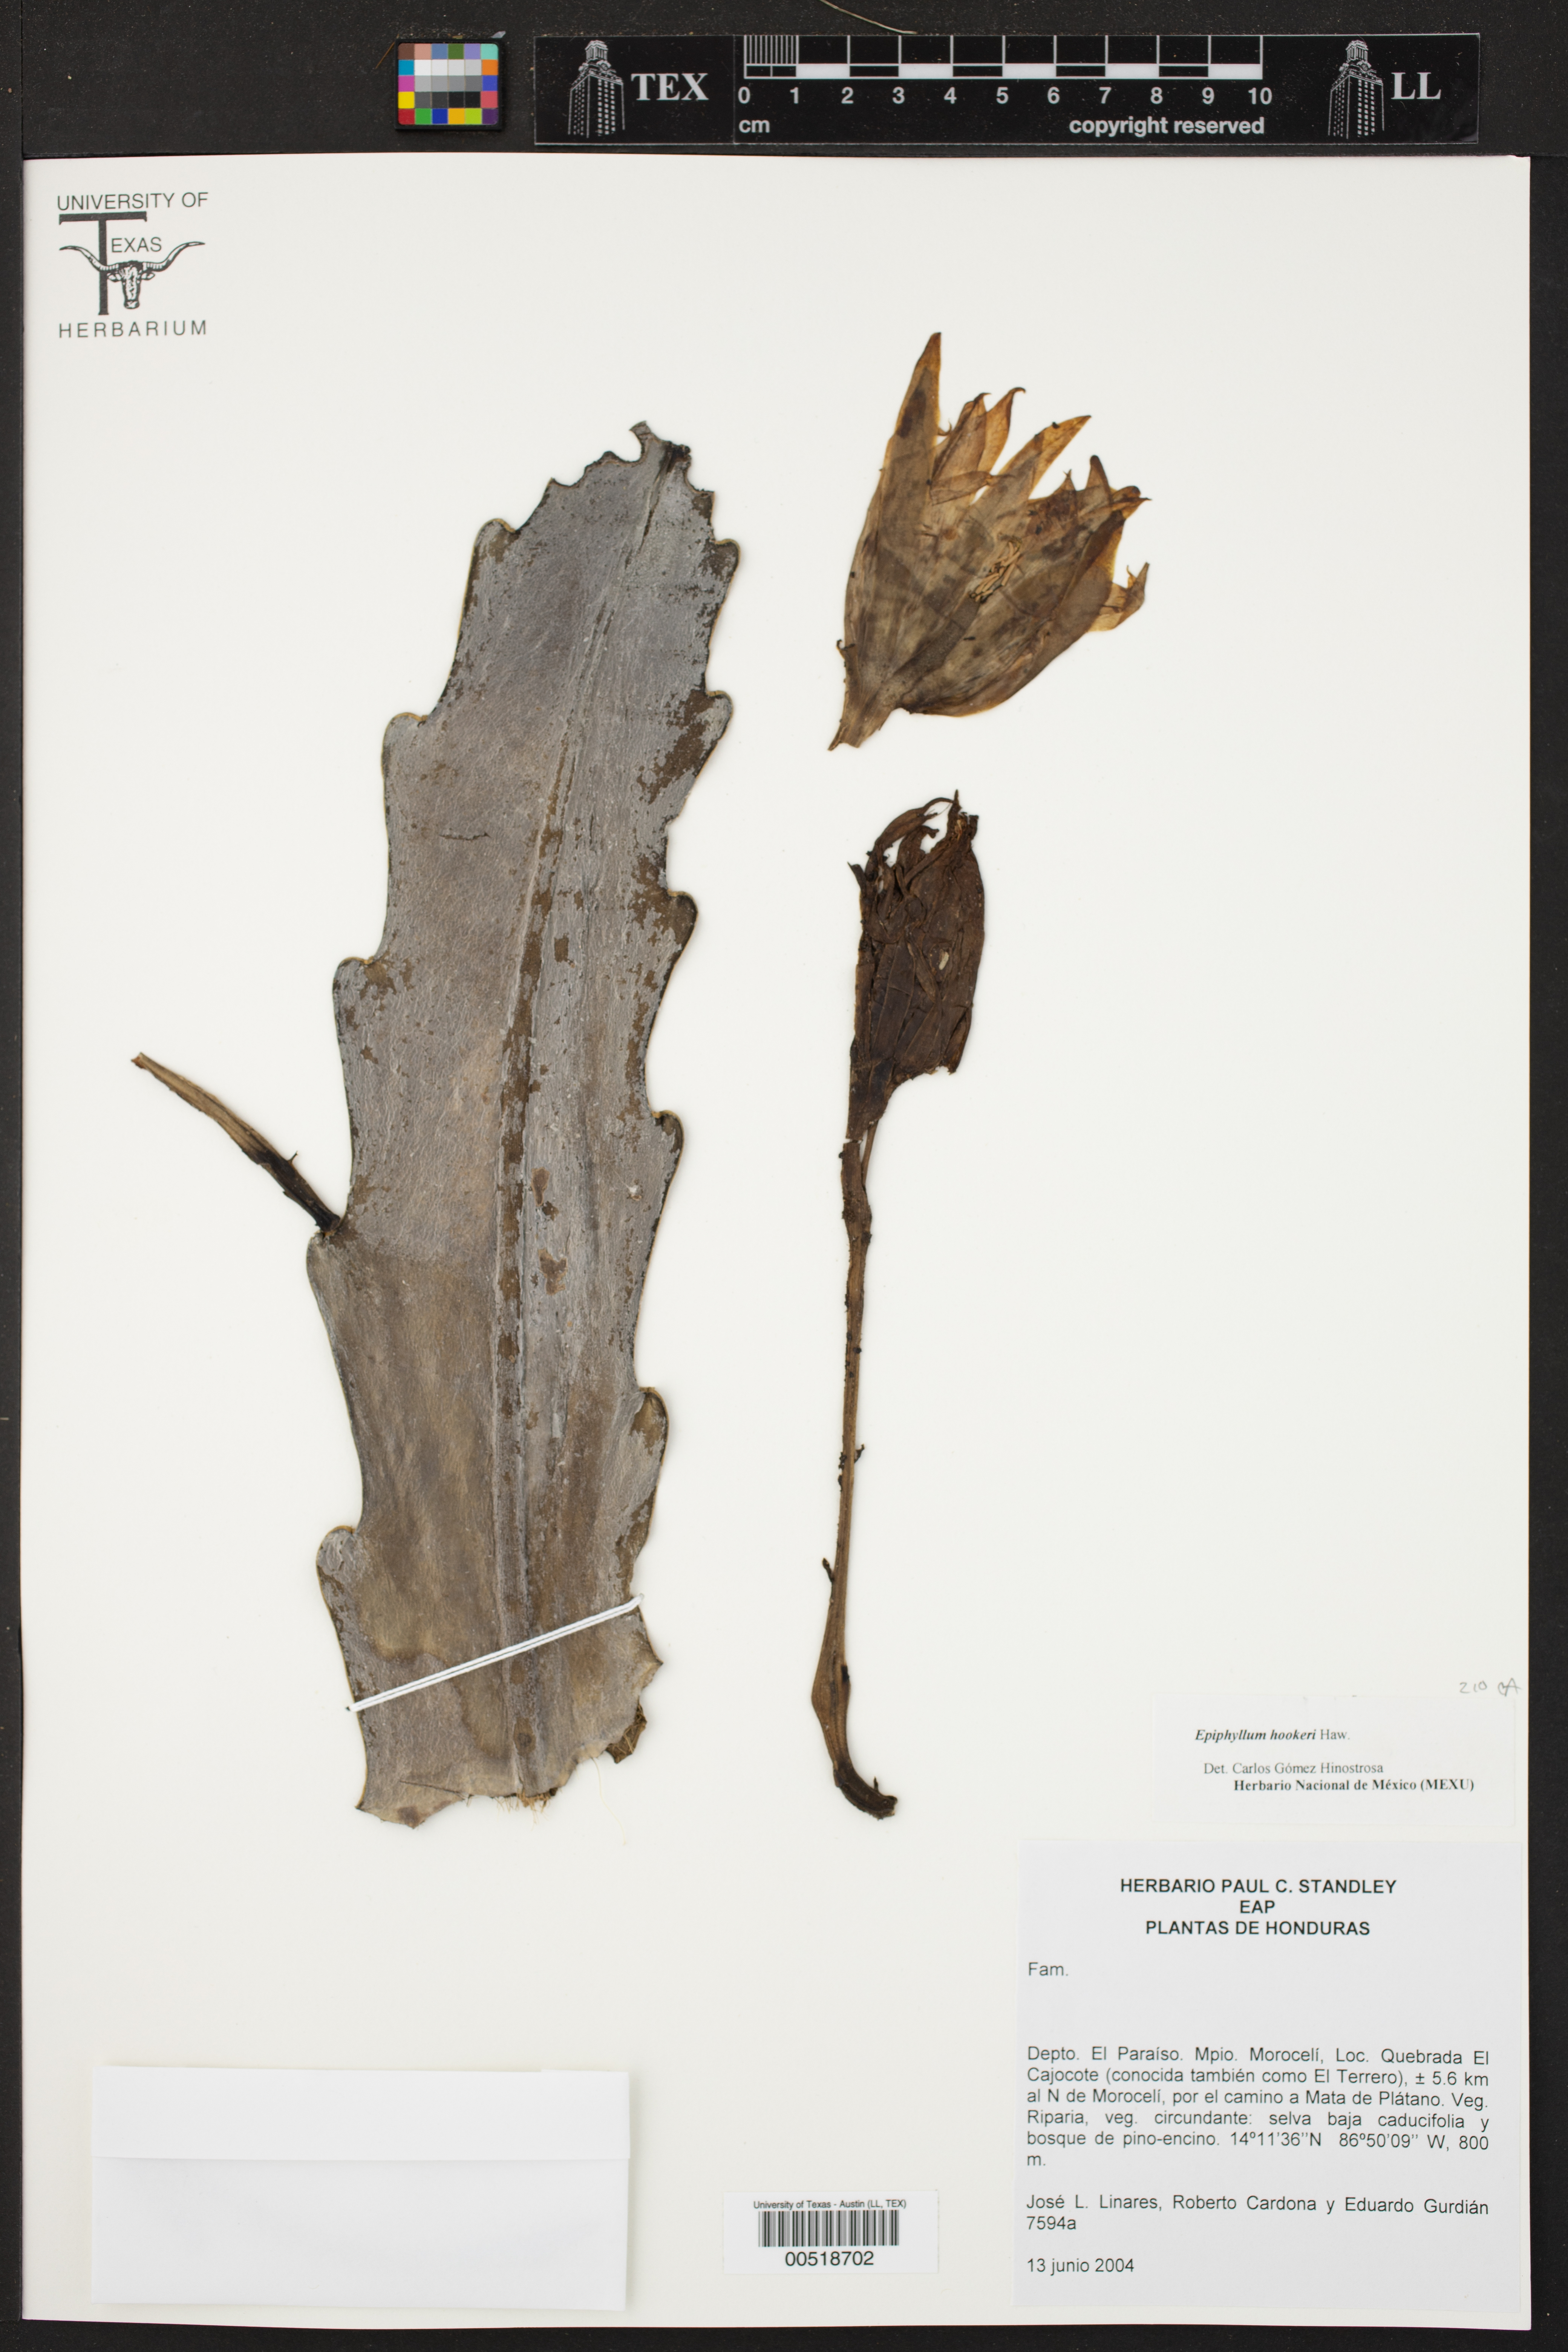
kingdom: Plantae
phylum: Tracheophyta
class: Magnoliopsida
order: Caryophyllales
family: Cactaceae
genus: Epiphyllum
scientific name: Epiphyllum hookeri
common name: Climbing cactus
